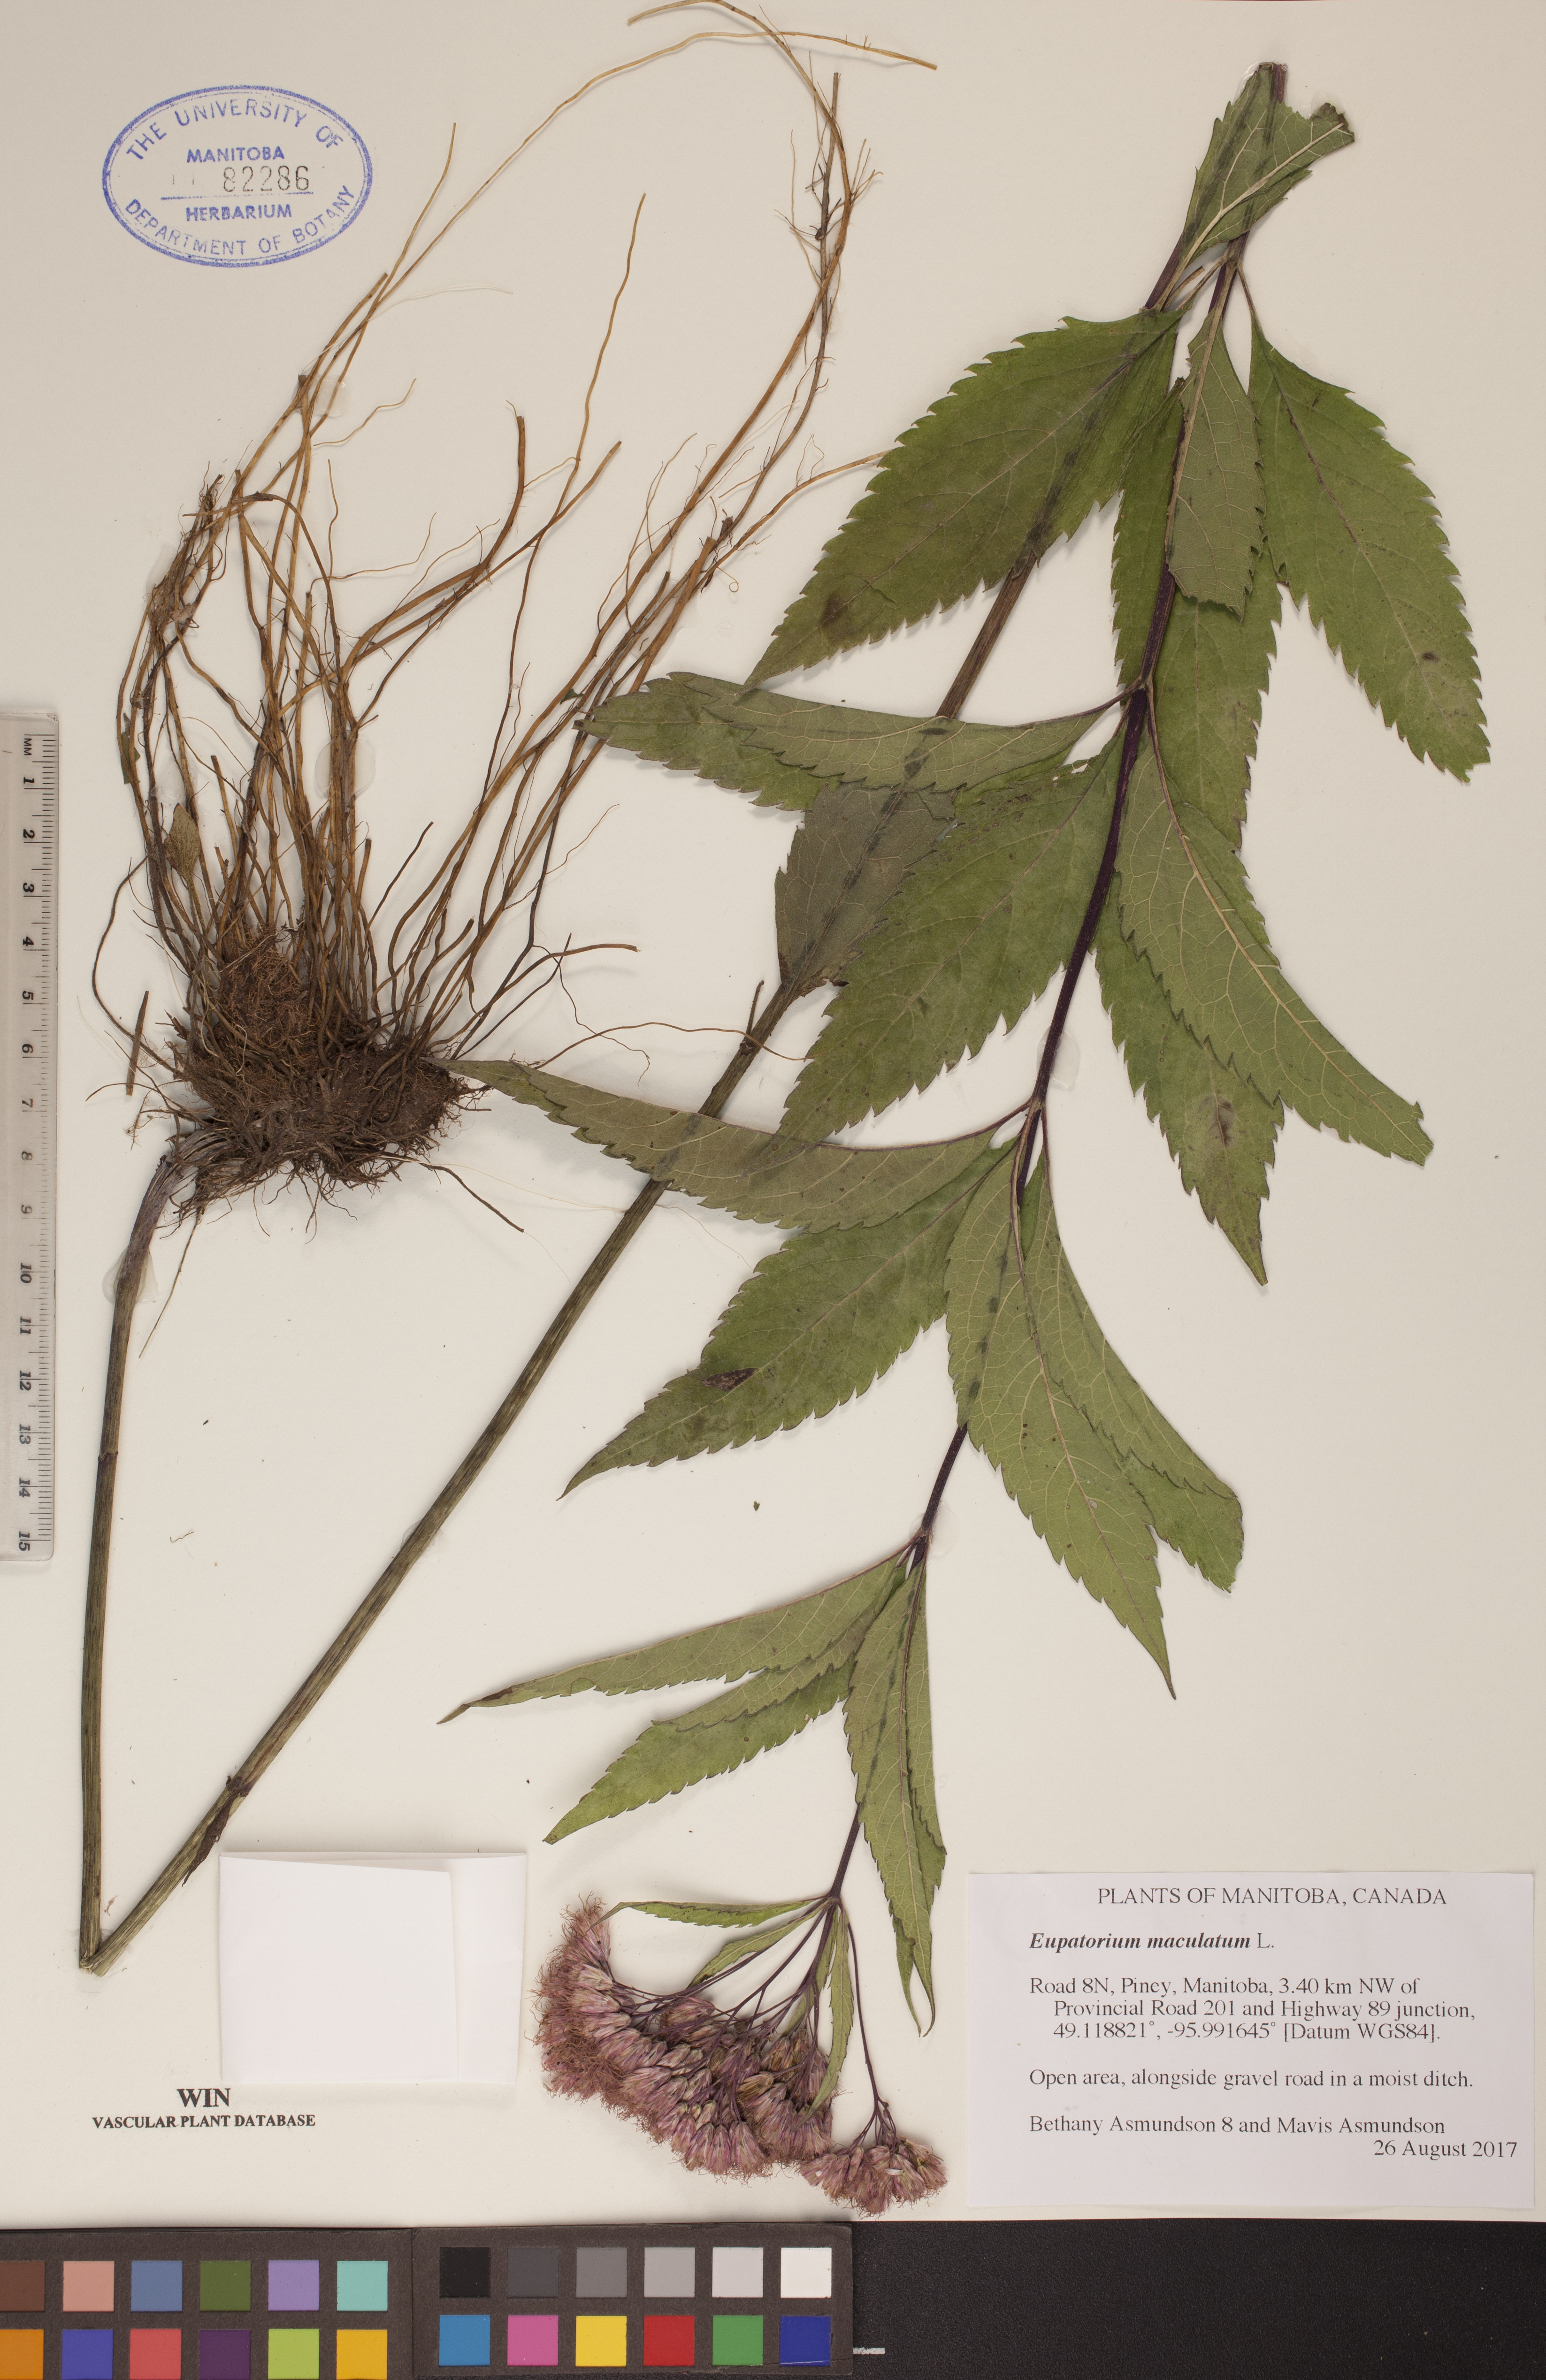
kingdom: Plantae
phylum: Tracheophyta
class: Magnoliopsida
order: Asterales
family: Asteraceae
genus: Eutrochium
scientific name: Eutrochium maculatum
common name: Spotted joe pye weed
